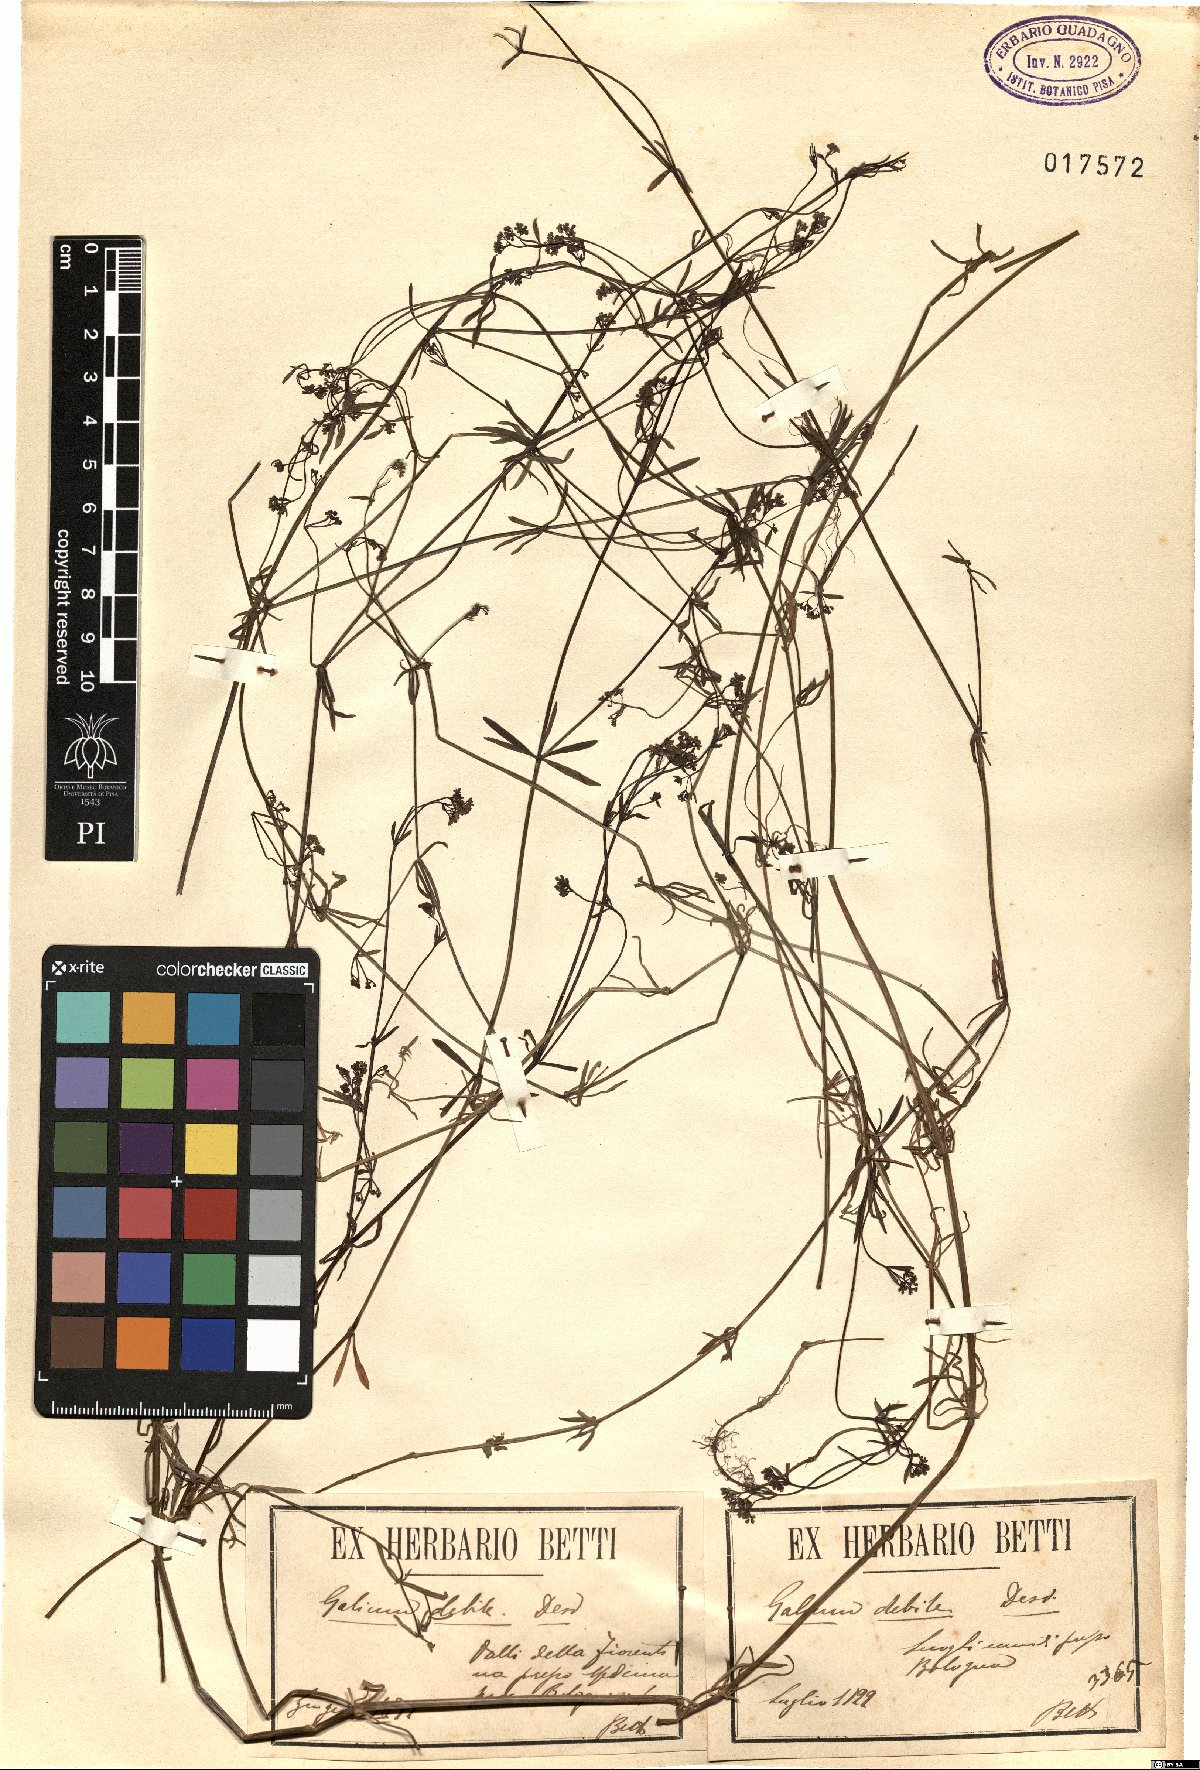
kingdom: Plantae
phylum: Tracheophyta
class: Magnoliopsida
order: Gentianales
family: Rubiaceae
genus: Galium
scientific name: Galium debile
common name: Slender marsh-bedstraw
